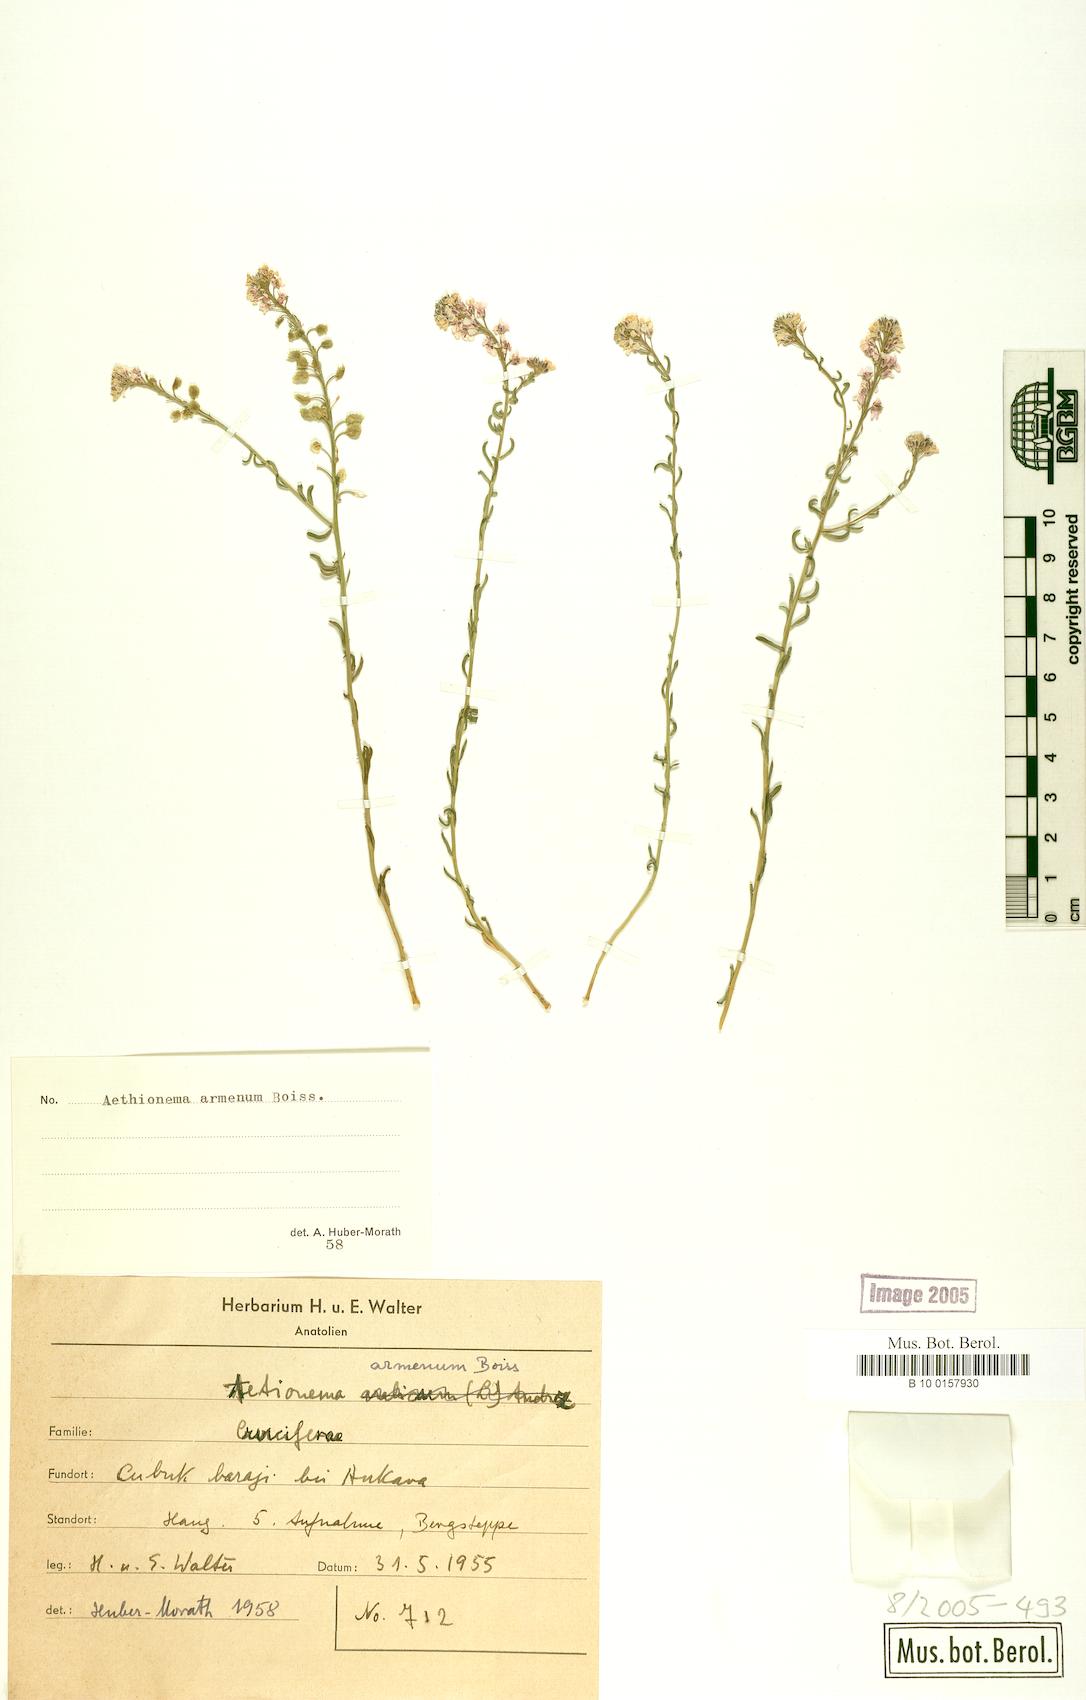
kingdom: Plantae
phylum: Tracheophyta
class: Magnoliopsida
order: Brassicales
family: Brassicaceae
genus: Aethionema
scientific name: Aethionema armenum
